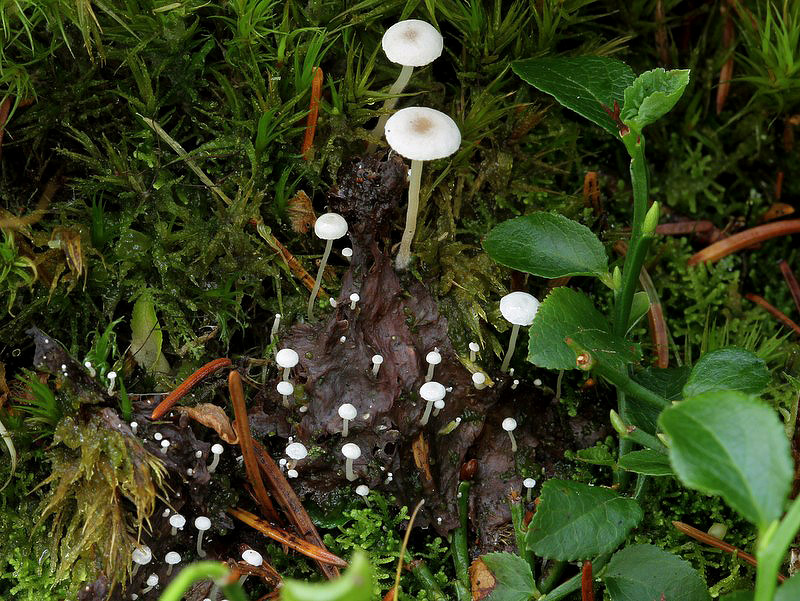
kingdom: Fungi
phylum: Basidiomycota
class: Agaricomycetes
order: Agaricales
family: Tricholomataceae
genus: Collybia
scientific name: Collybia cirrhata
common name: silke-lighat
